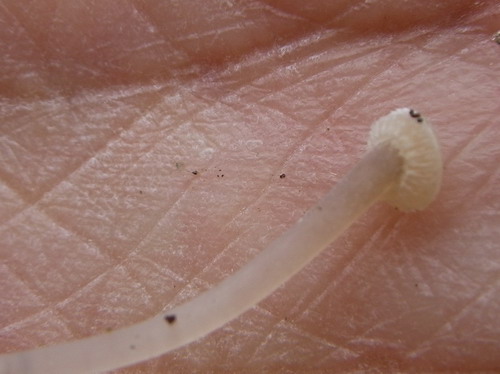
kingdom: Fungi
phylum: Basidiomycota
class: Agaricomycetes
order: Agaricales
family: Mycenaceae
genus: Mycena
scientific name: Mycena stylobates
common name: fureskivet huesvamp
